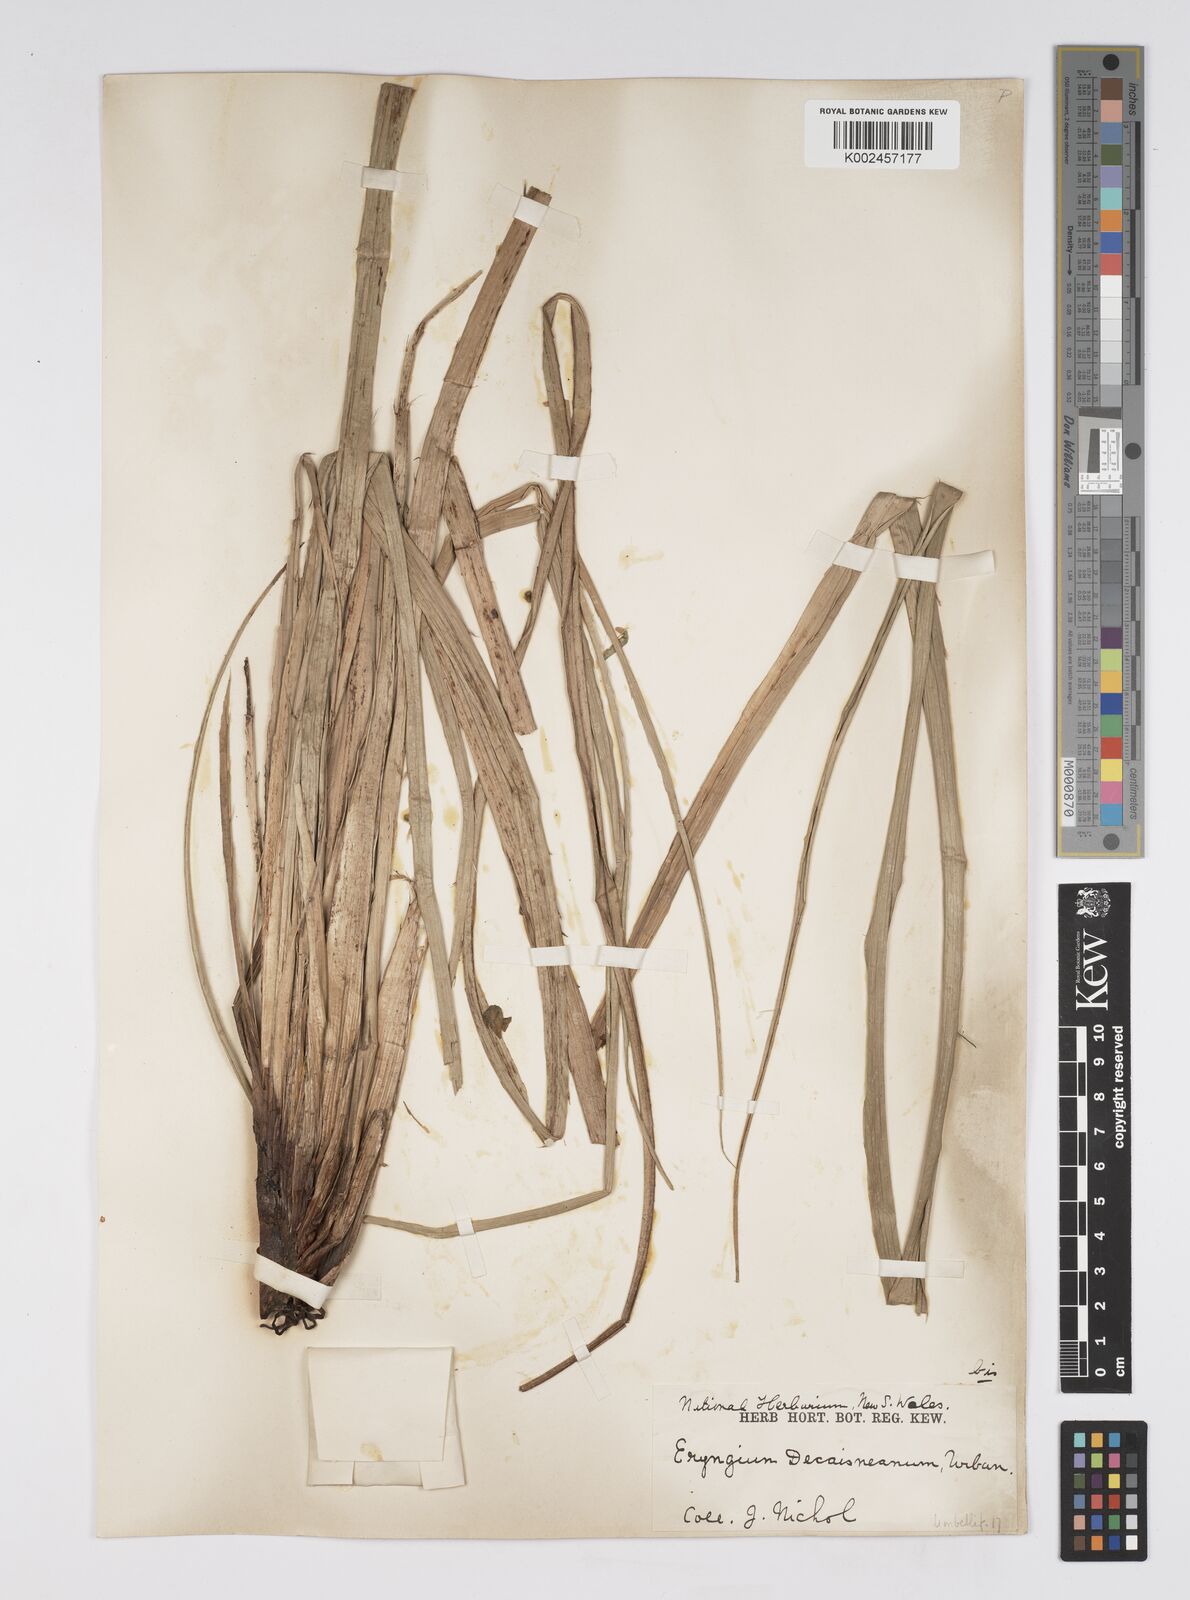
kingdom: Plantae
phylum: Tracheophyta
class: Magnoliopsida
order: Apiales
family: Apiaceae
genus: Eryngium
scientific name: Eryngium pandanifolium
